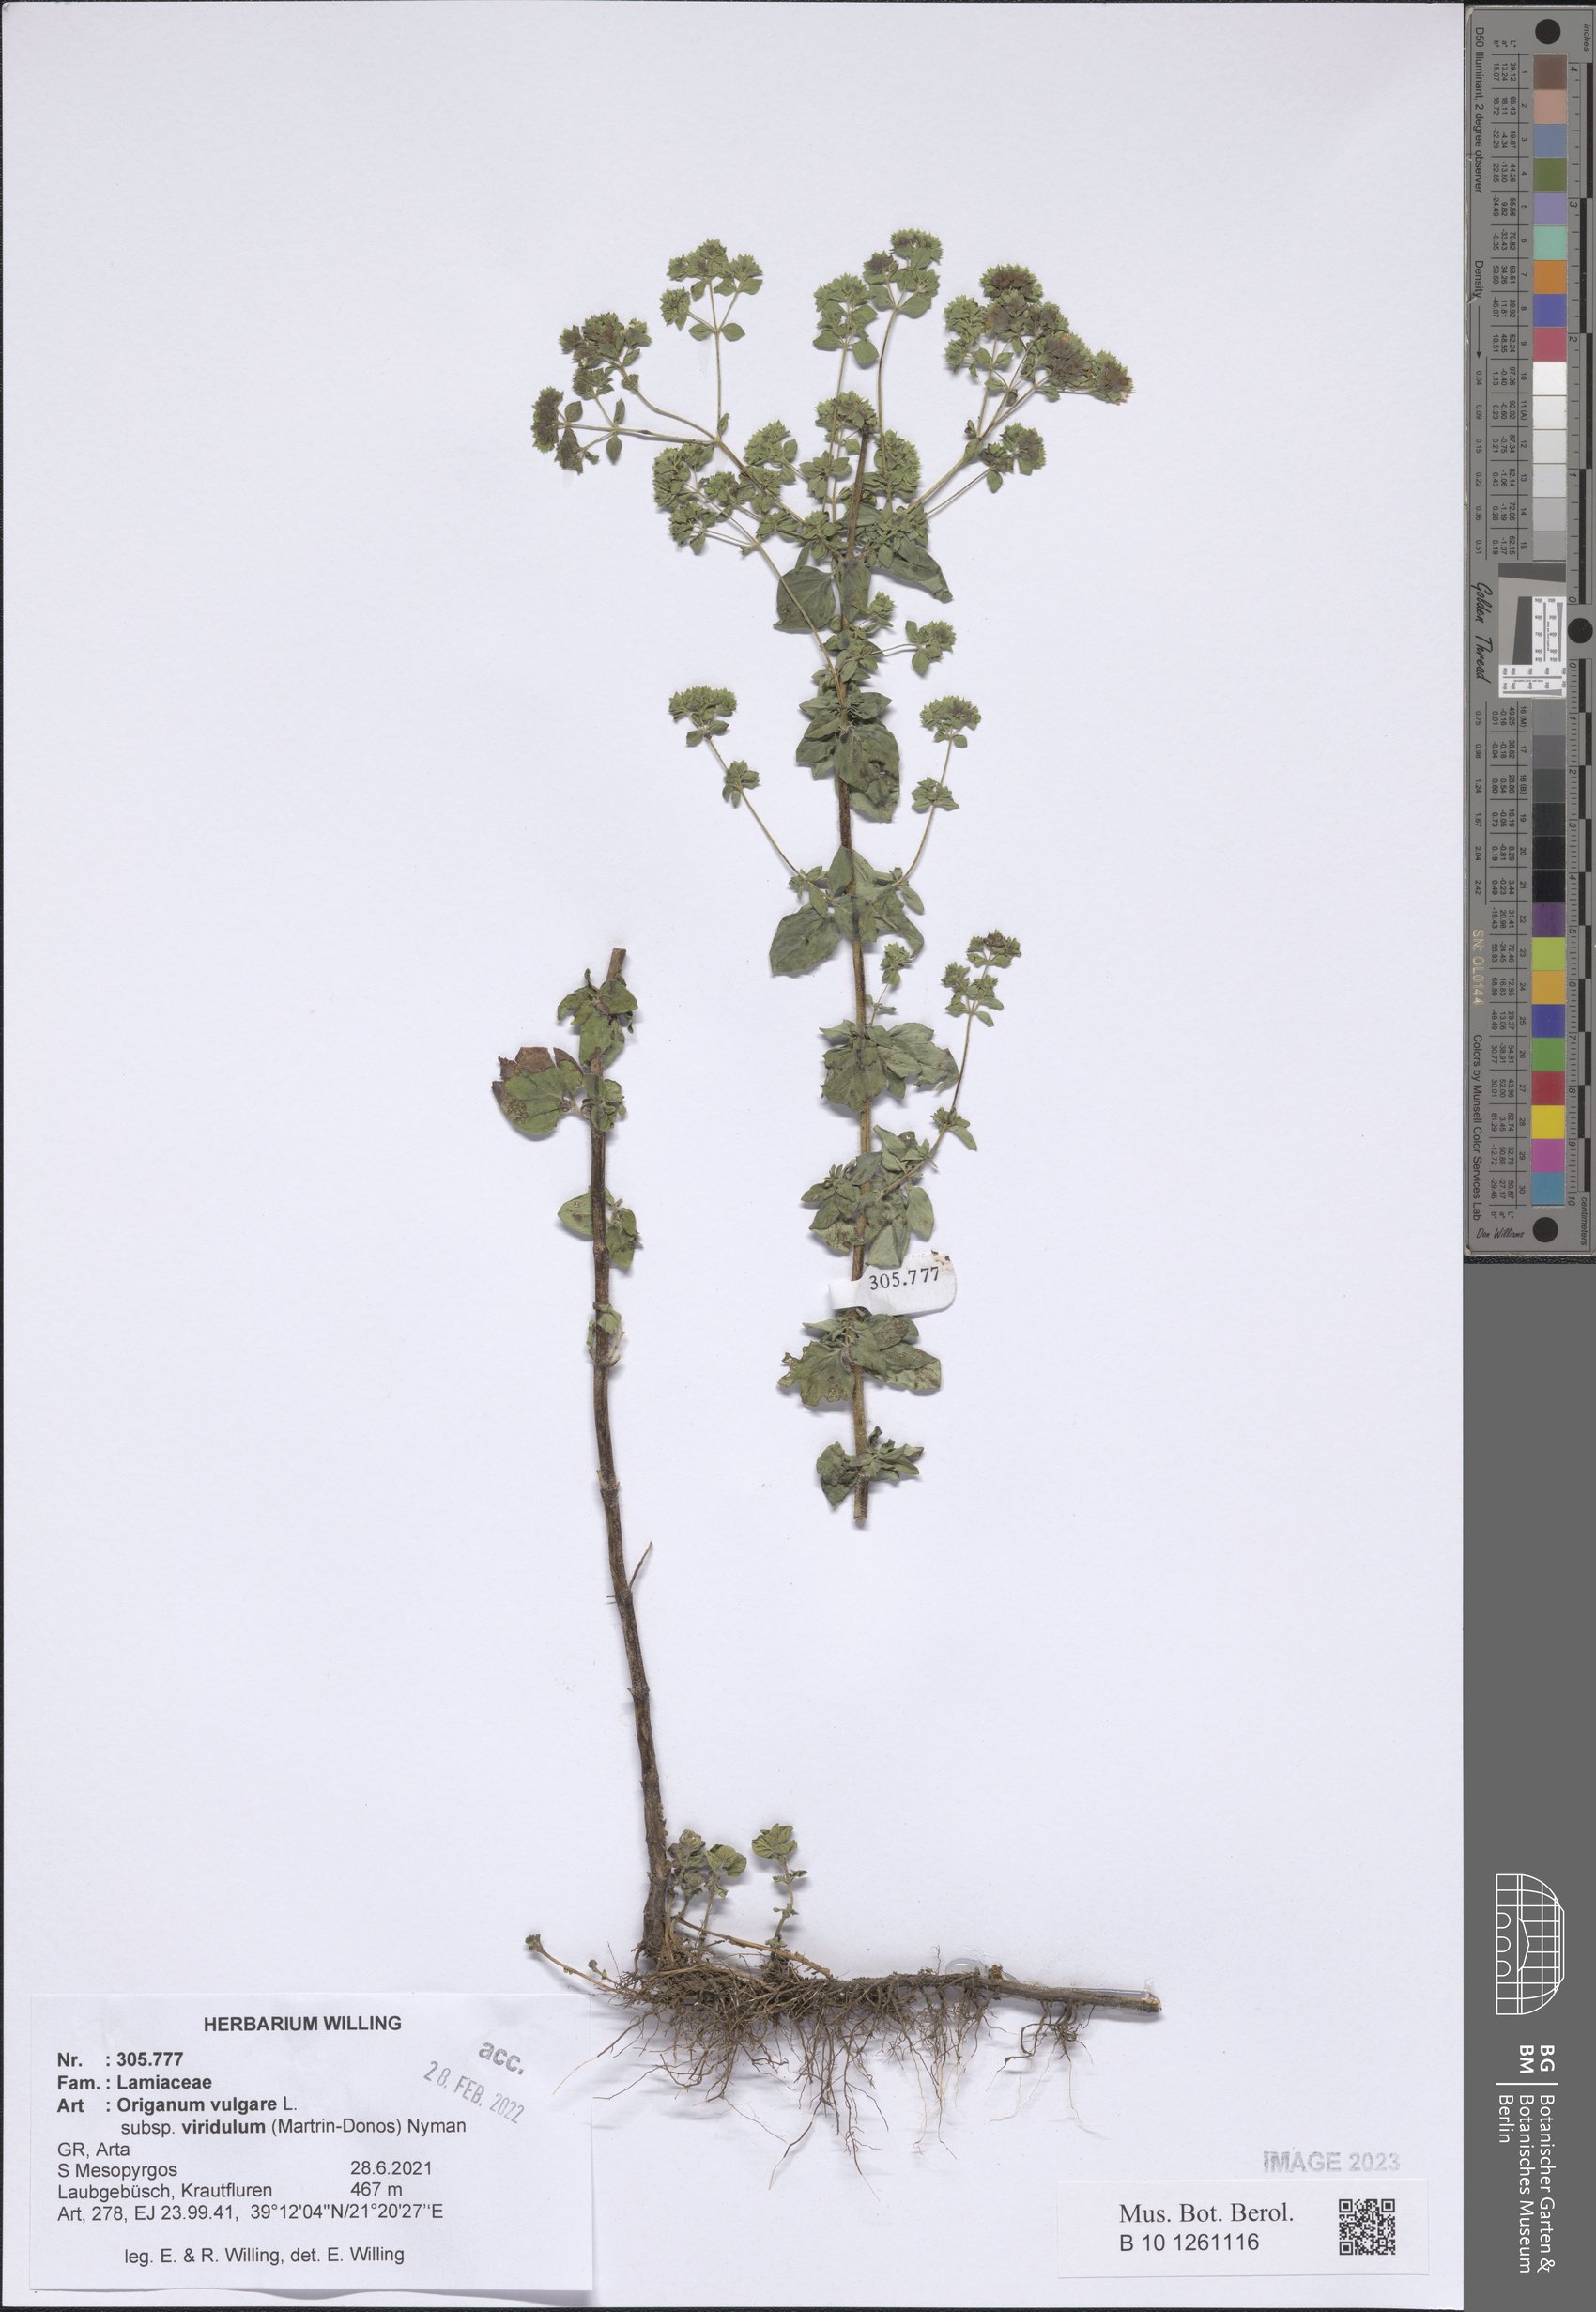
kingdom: Plantae
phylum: Tracheophyta
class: Magnoliopsida
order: Lamiales
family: Lamiaceae
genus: Origanum
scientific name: Origanum vulgare
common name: Wild marjoram
